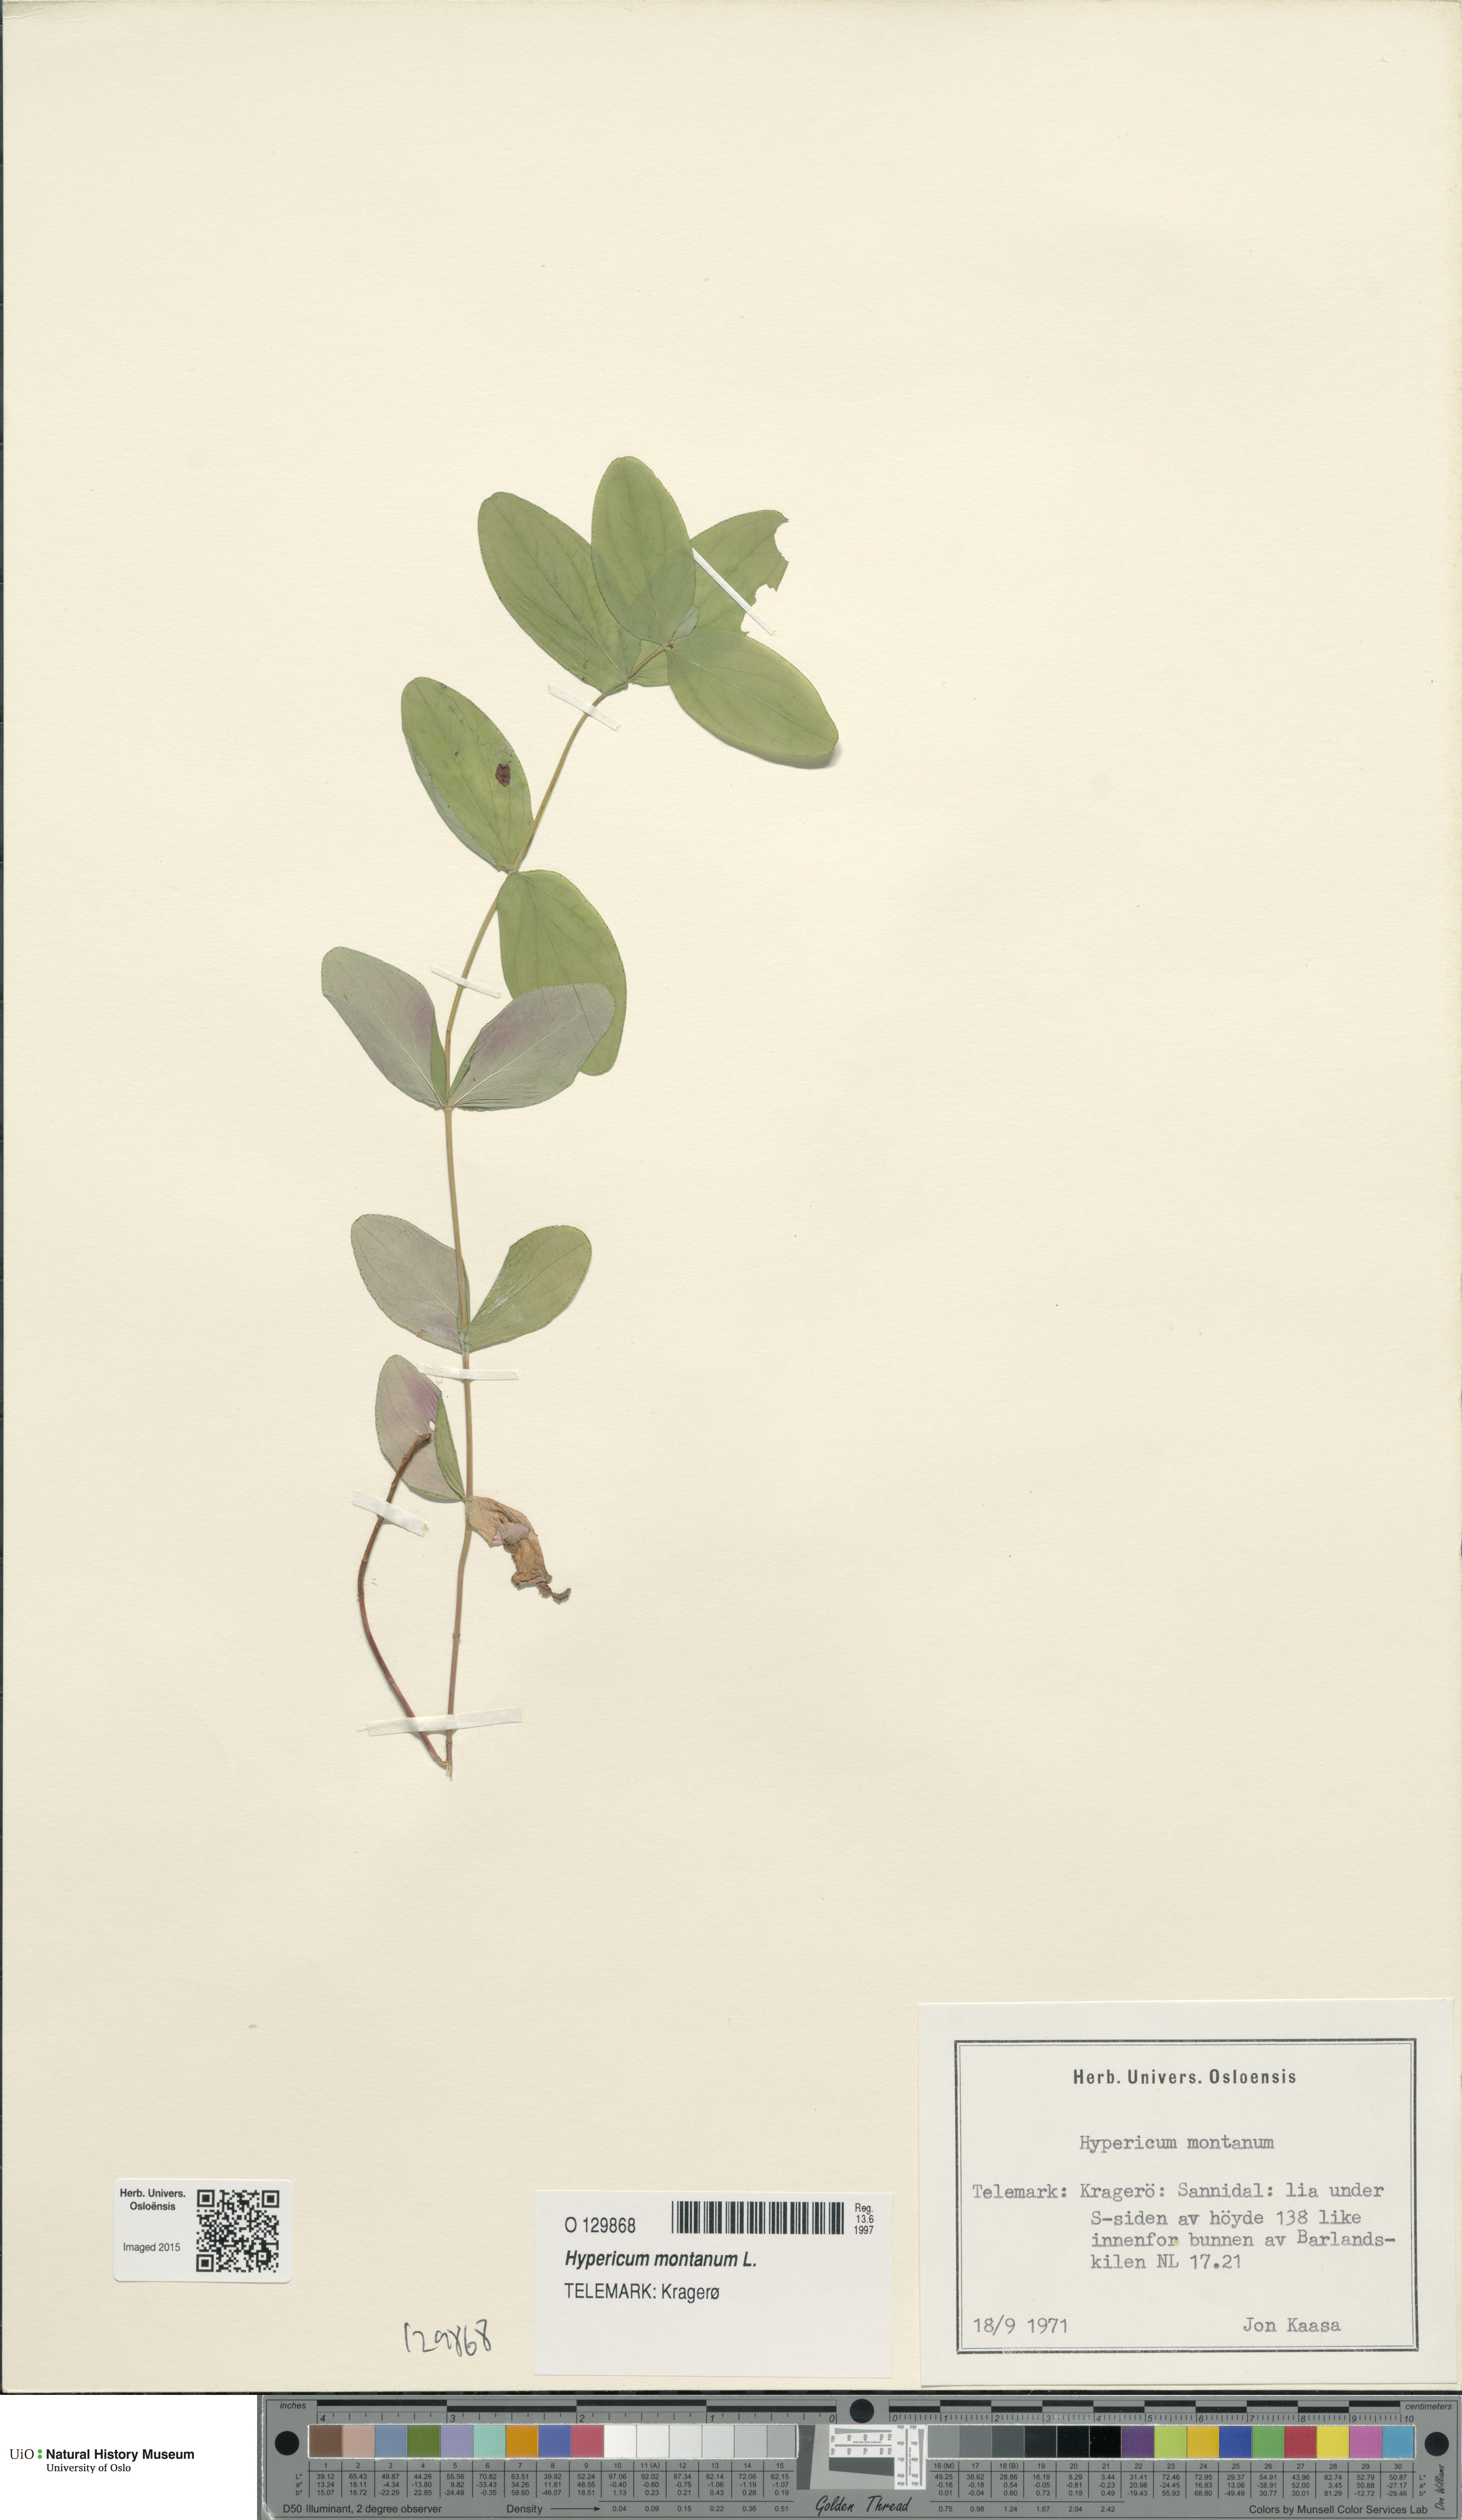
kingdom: Plantae
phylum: Tracheophyta
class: Magnoliopsida
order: Malpighiales
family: Hypericaceae
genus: Hypericum
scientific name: Hypericum montanum
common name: Pale st. john's-wort
